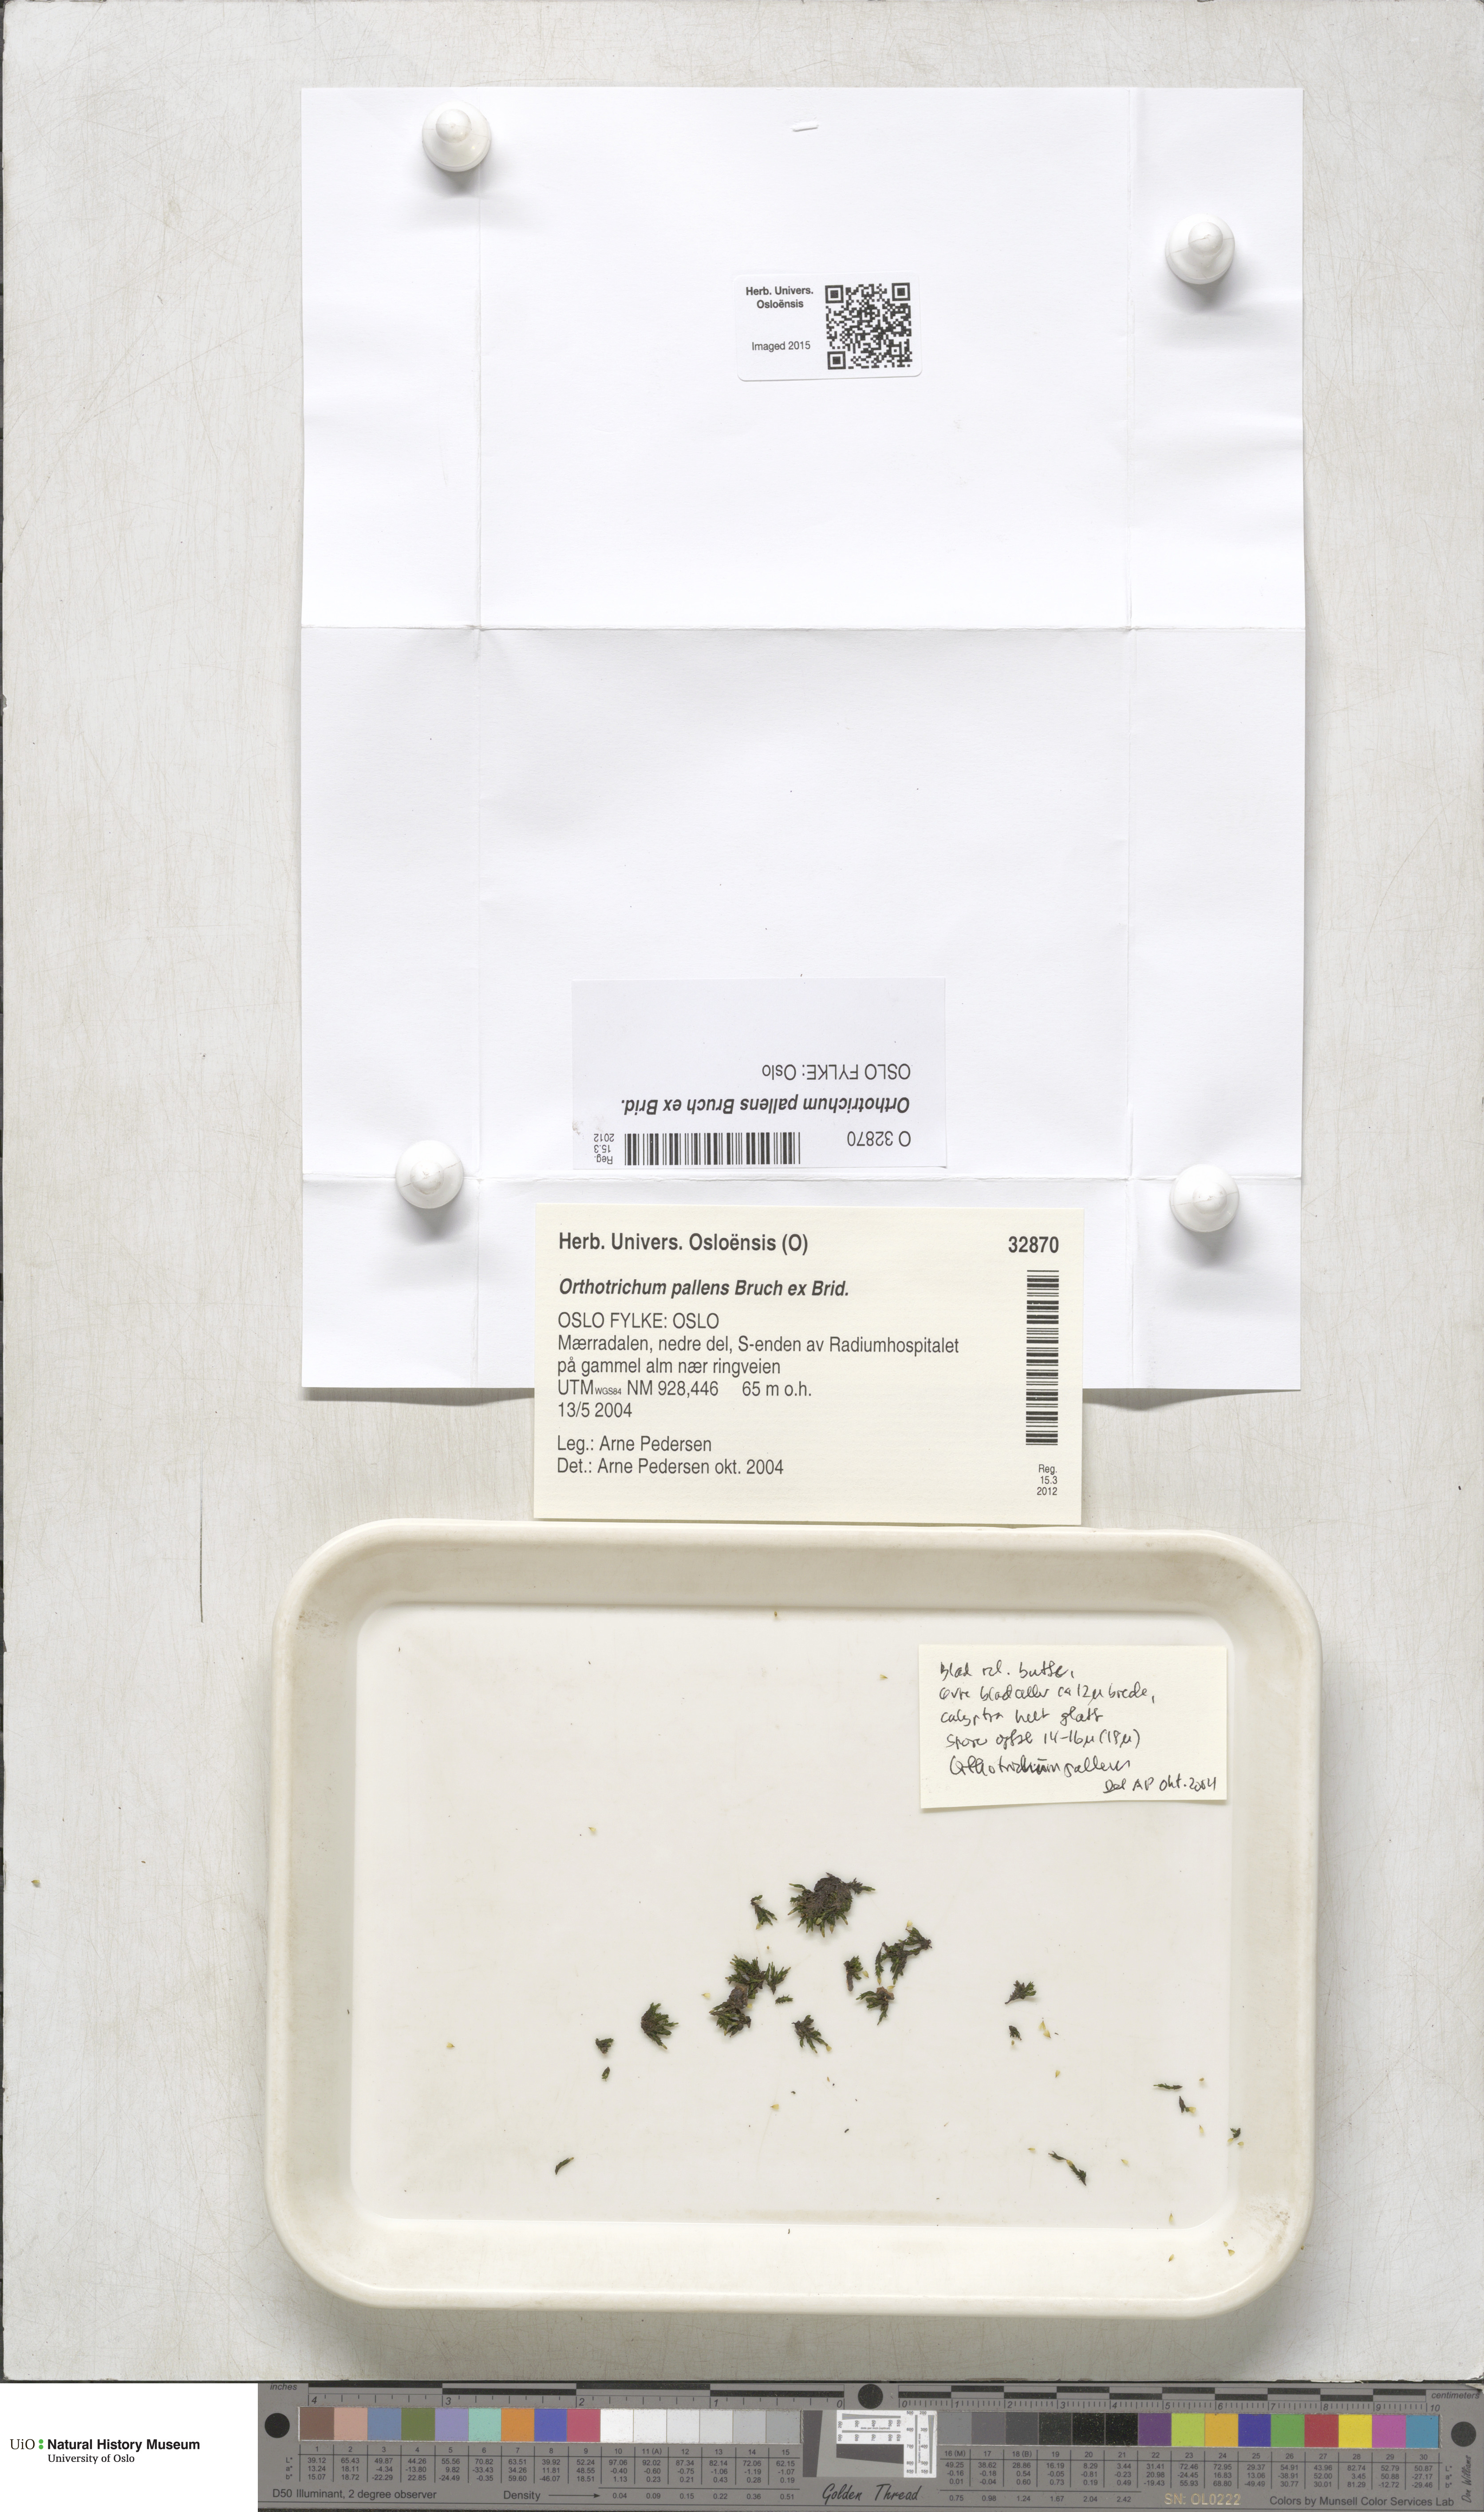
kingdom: Plantae
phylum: Bryophyta
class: Bryopsida
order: Orthotrichales
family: Orthotrichaceae
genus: Orthotrichum
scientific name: Orthotrichum pallens
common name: Pale bristle moss
